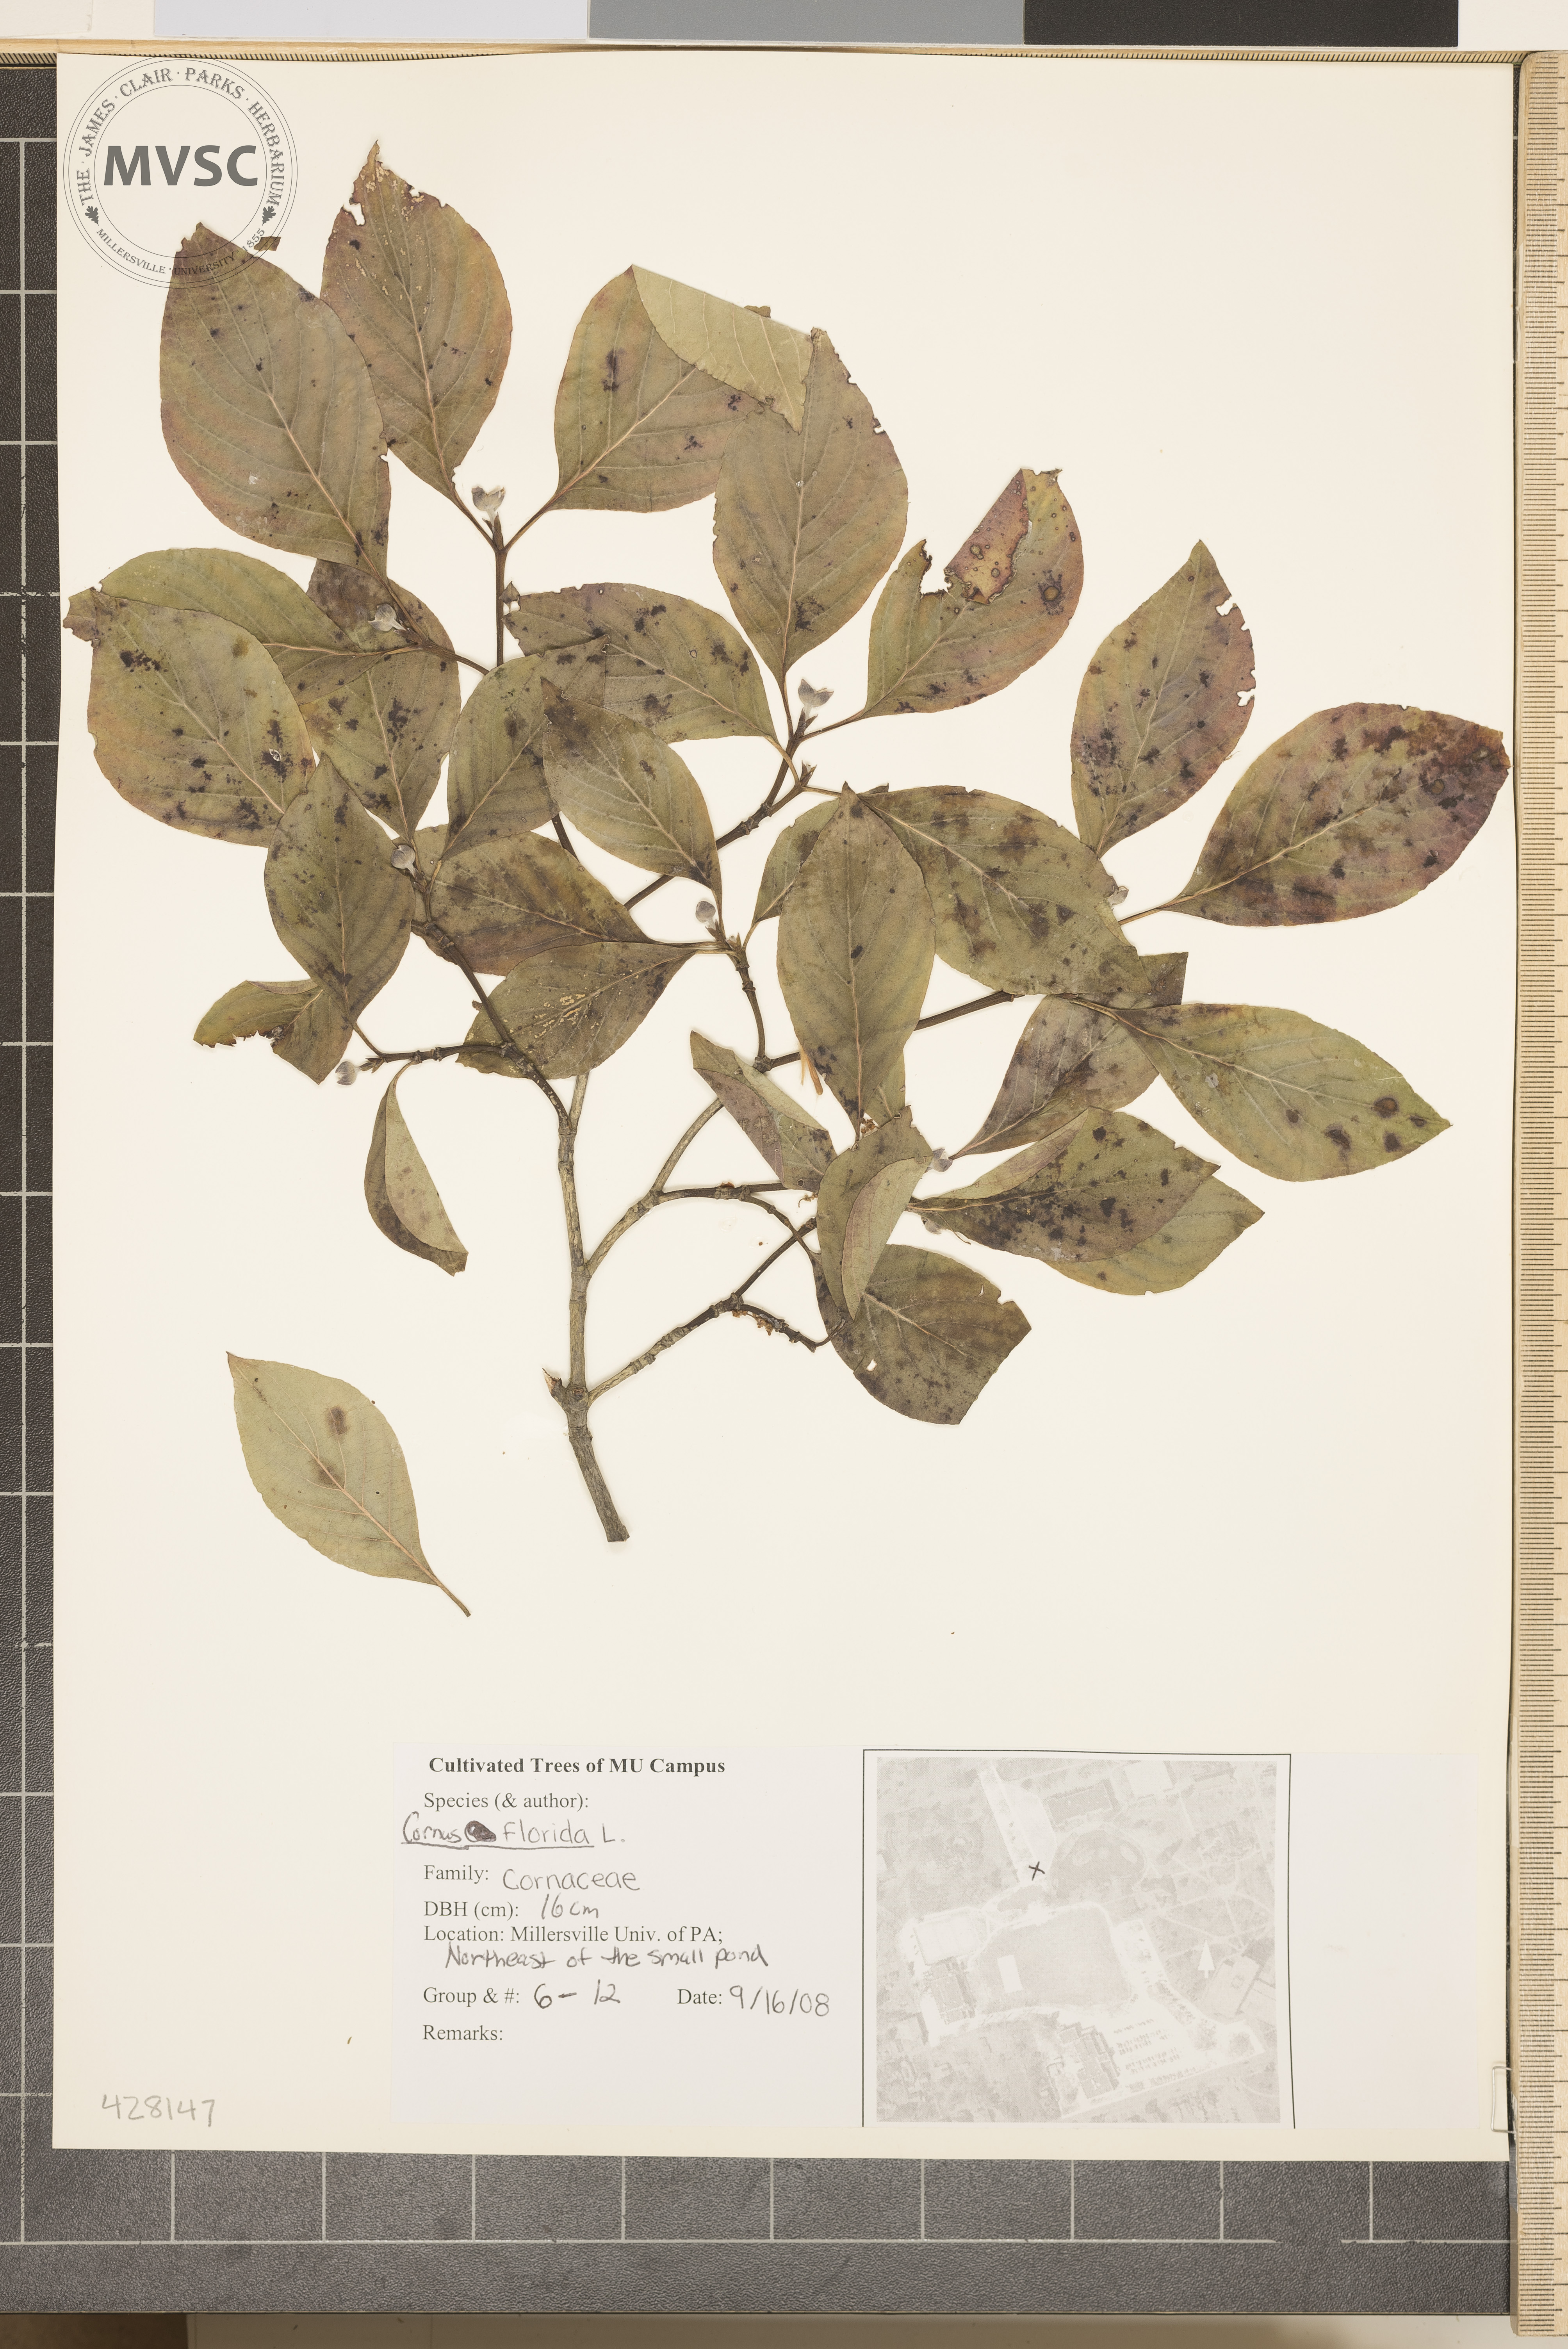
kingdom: Plantae
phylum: Tracheophyta
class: Magnoliopsida
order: Cornales
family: Cornaceae
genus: Cornus
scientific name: Cornus florida
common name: Flowering Dogwood
